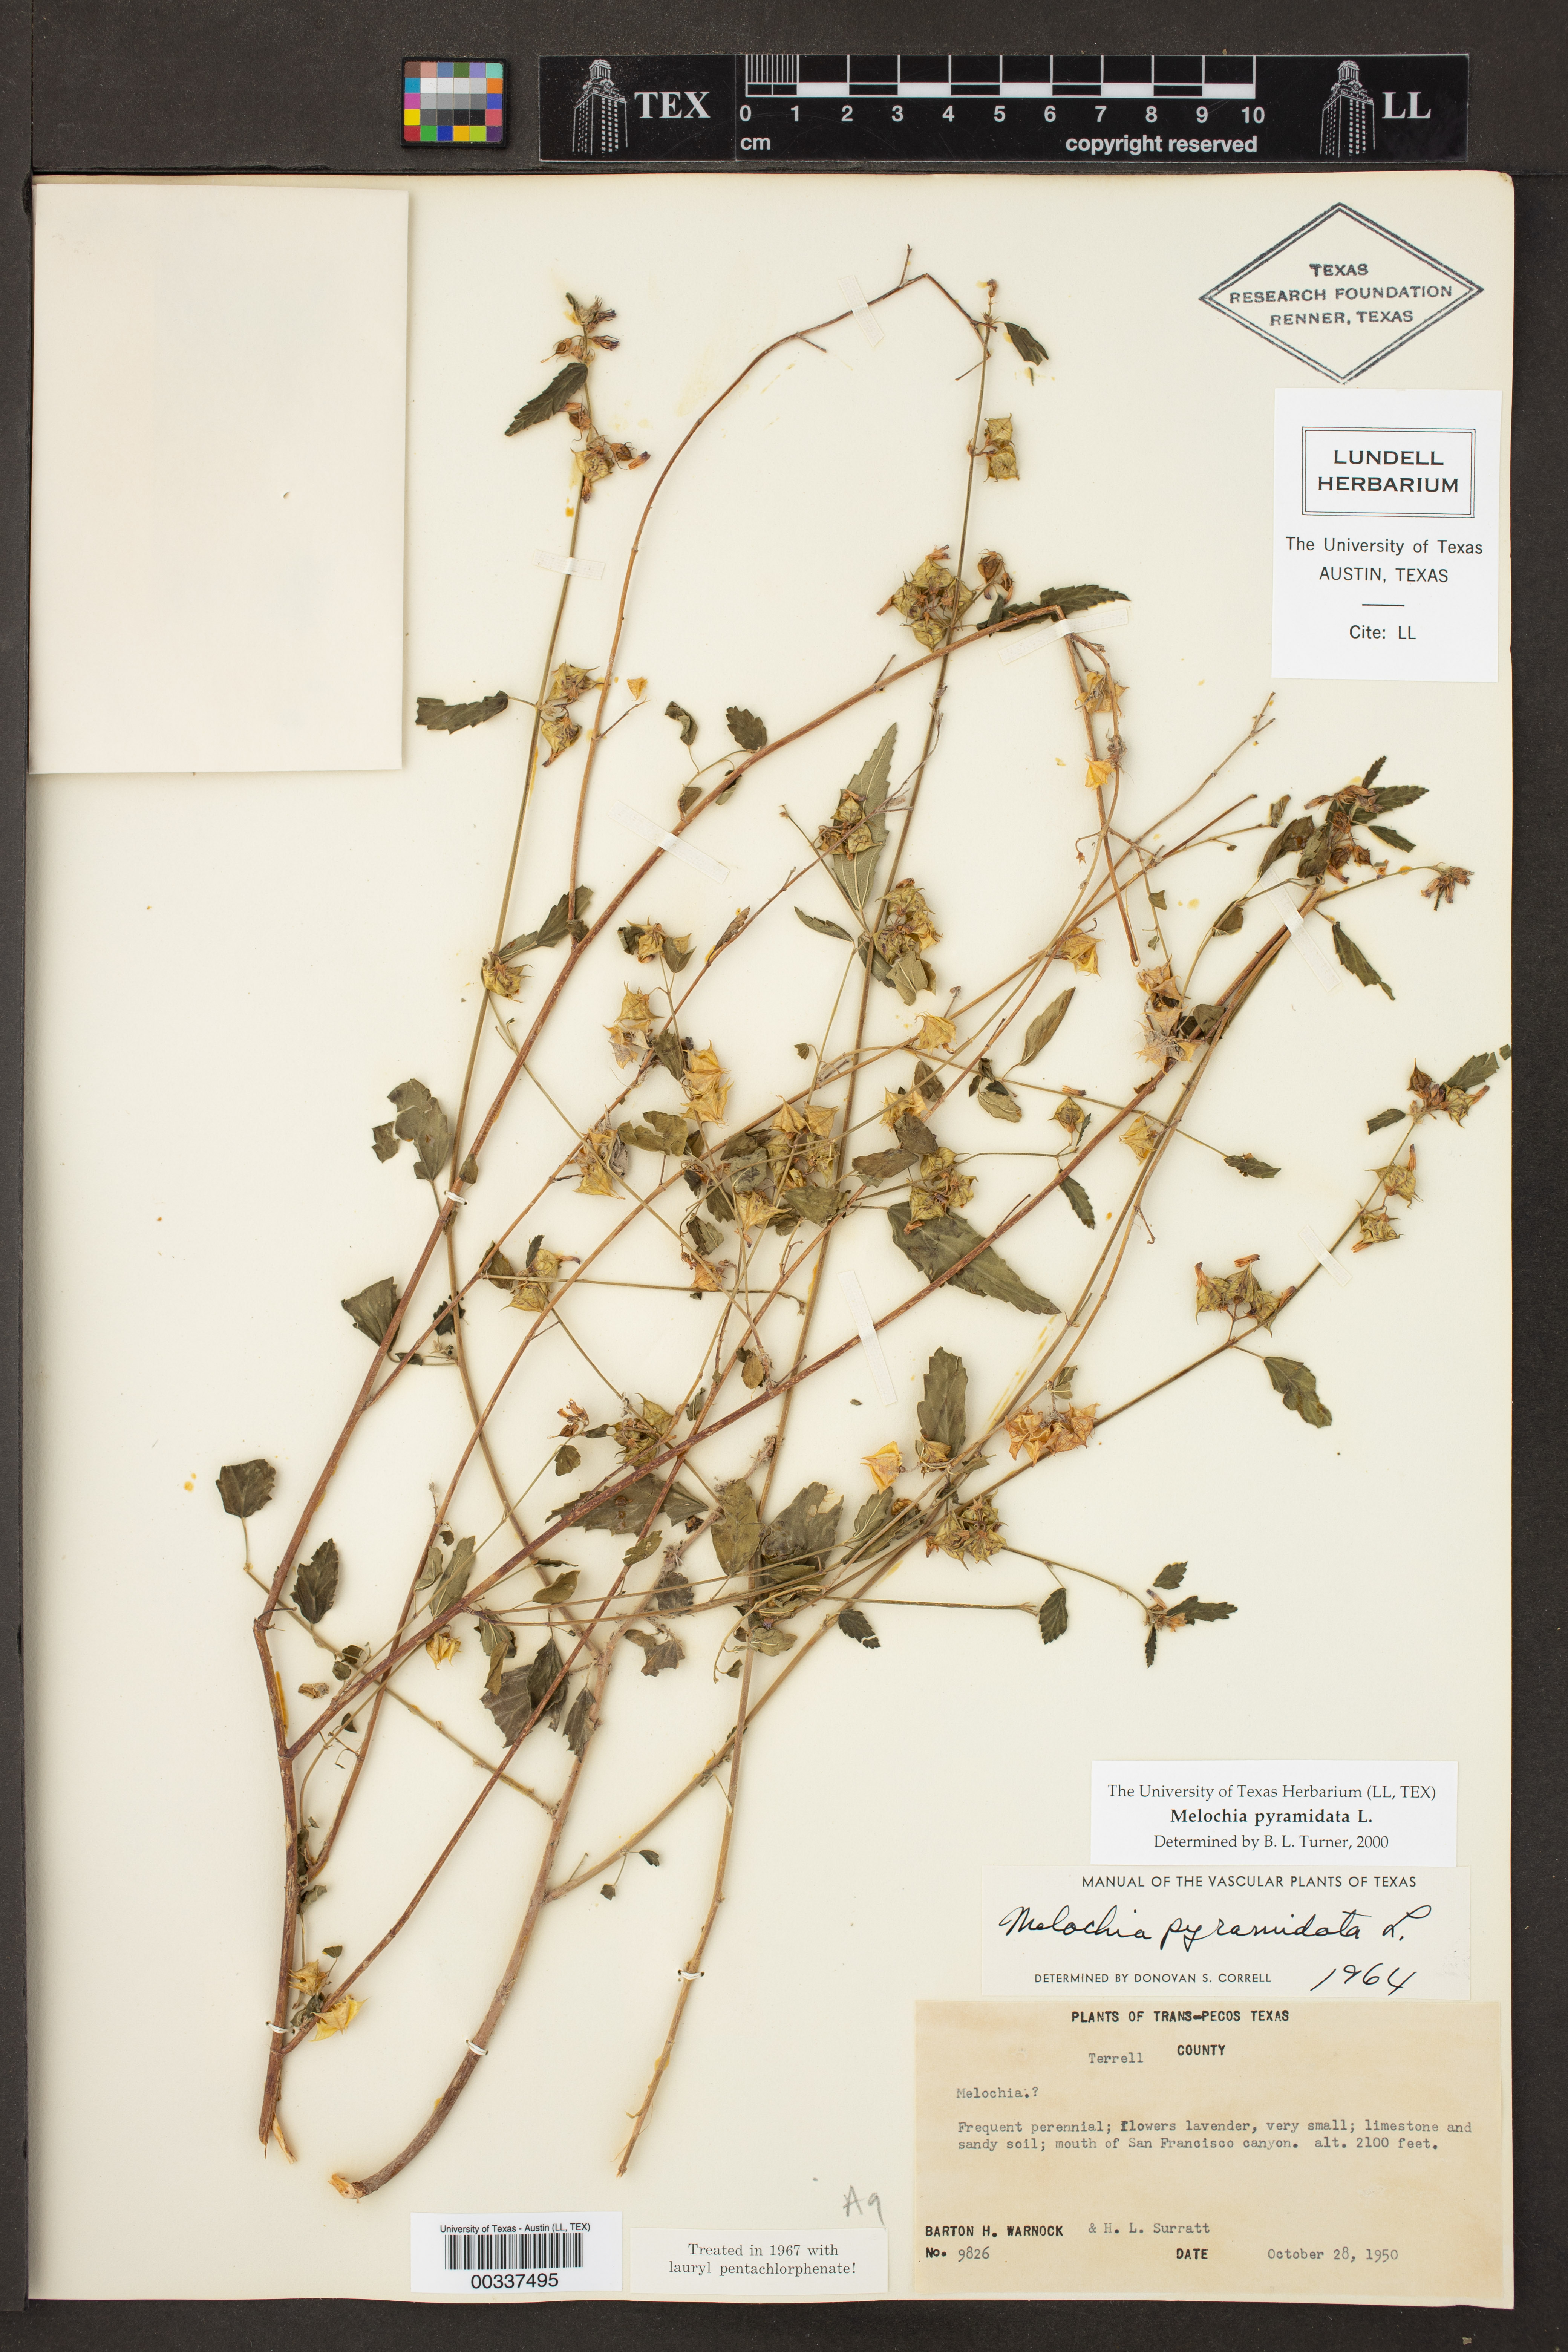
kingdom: Plantae
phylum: Tracheophyta
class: Magnoliopsida
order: Malvales
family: Malvaceae
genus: Melochia
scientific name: Melochia pyramidata
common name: Pyramidflower
